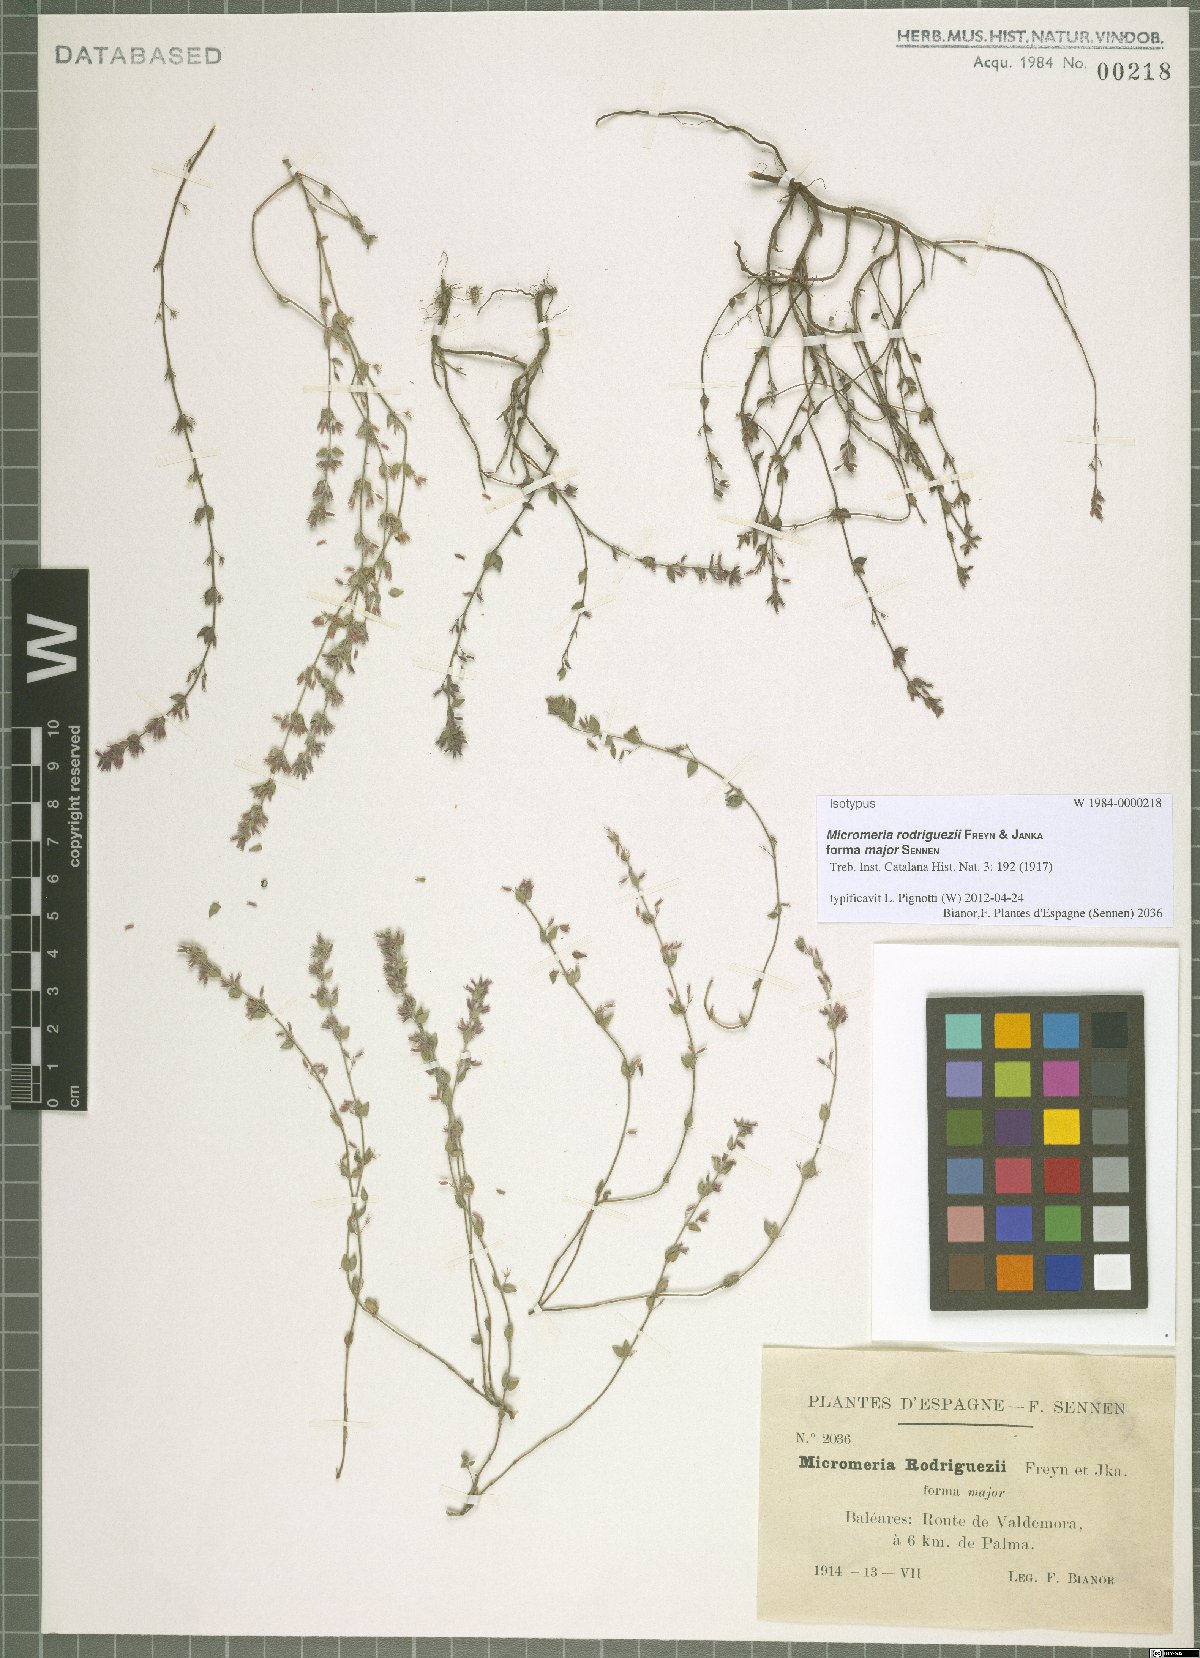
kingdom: Plantae
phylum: Tracheophyta
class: Magnoliopsida
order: Lamiales
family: Lamiaceae
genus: Micromeria
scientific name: Micromeria microphylla
